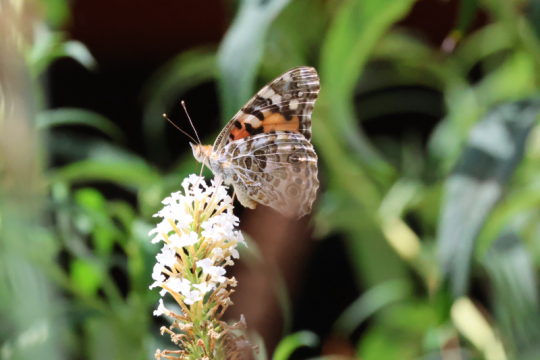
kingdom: Animalia
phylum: Arthropoda
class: Insecta
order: Lepidoptera
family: Nymphalidae
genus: Vanessa
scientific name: Vanessa cardui
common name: Painted Lady
